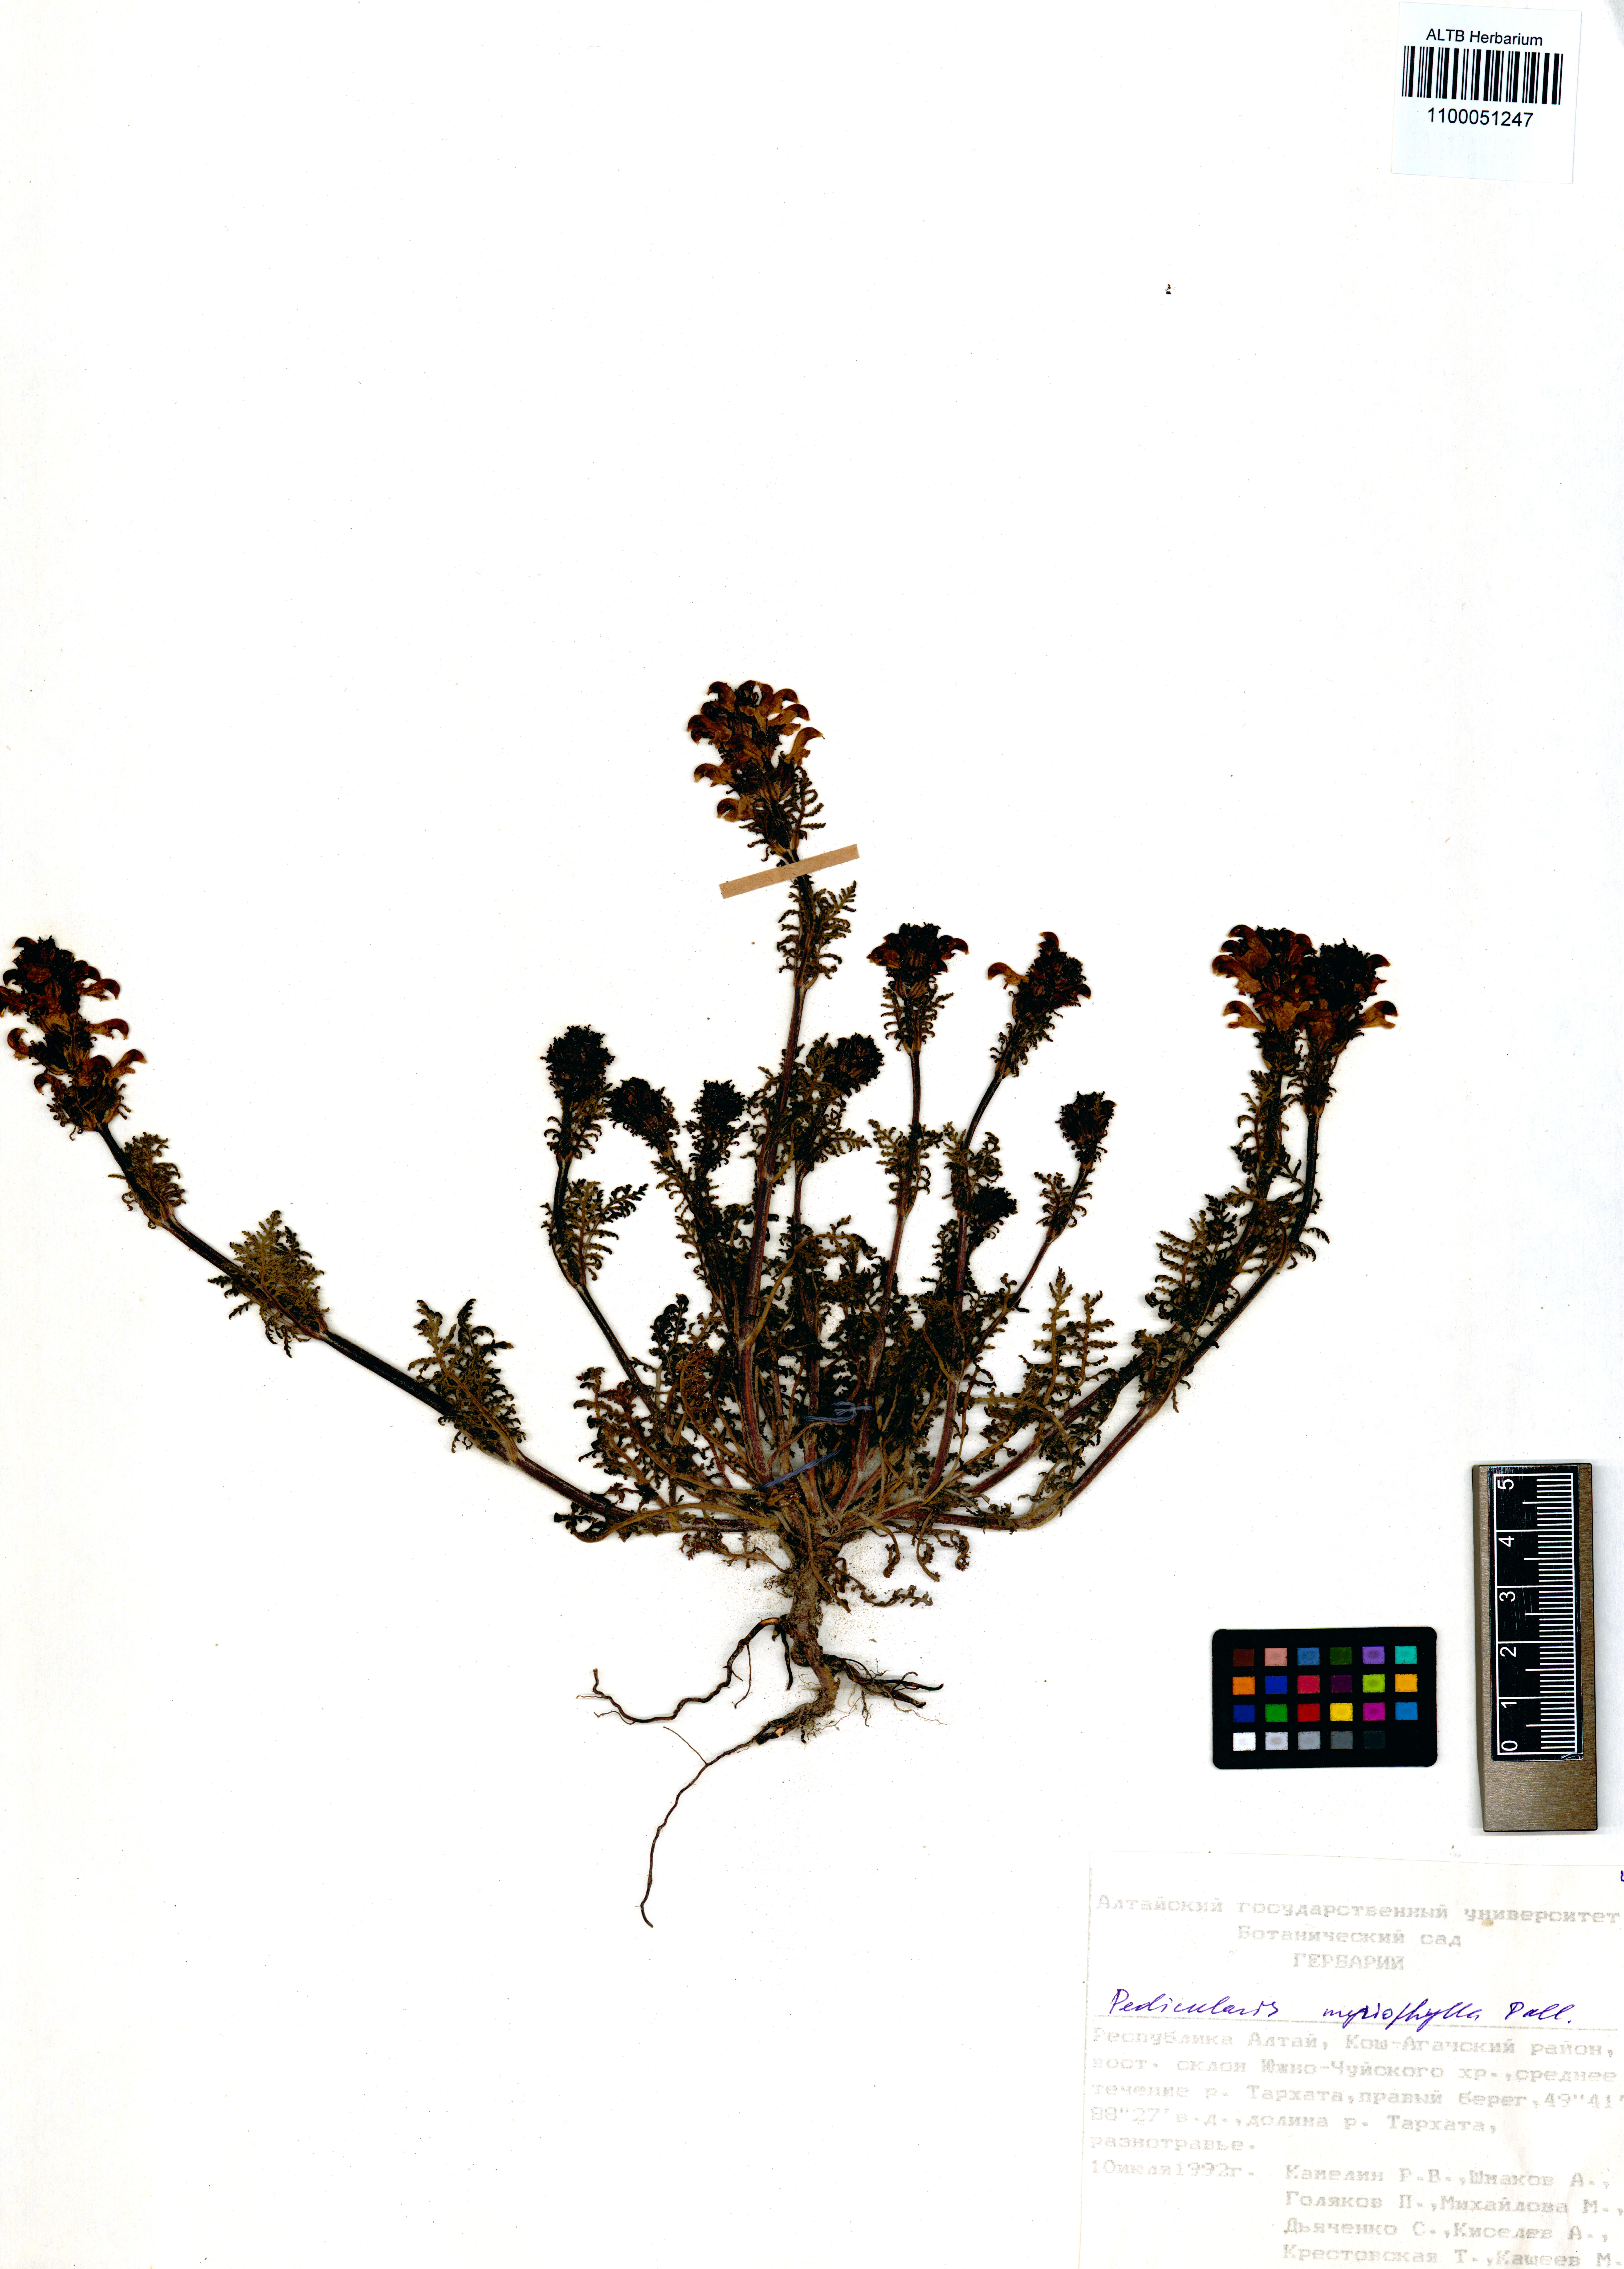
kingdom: Plantae
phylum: Tracheophyta
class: Magnoliopsida
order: Lamiales
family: Orobanchaceae
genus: Pedicularis
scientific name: Pedicularis myriophylla
